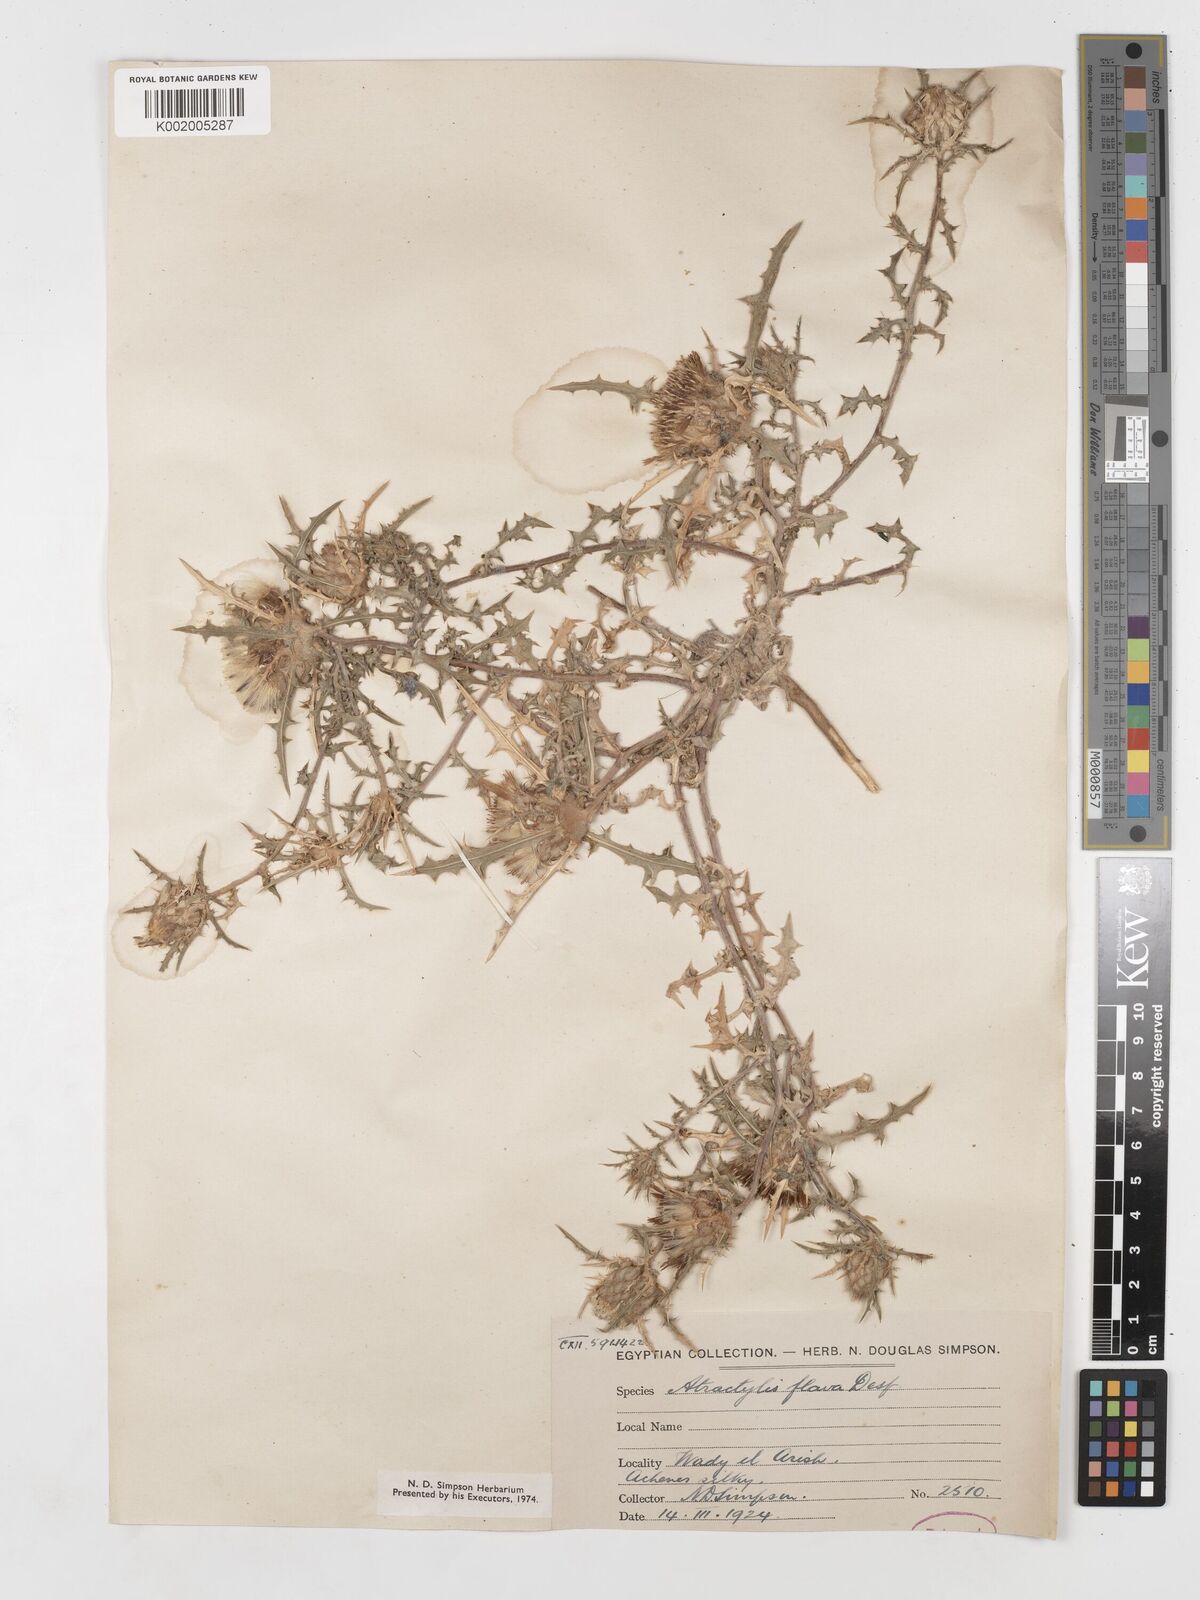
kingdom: Plantae
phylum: Tracheophyta
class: Magnoliopsida
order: Asterales
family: Asteraceae
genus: Atractylis
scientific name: Atractylis carduus
